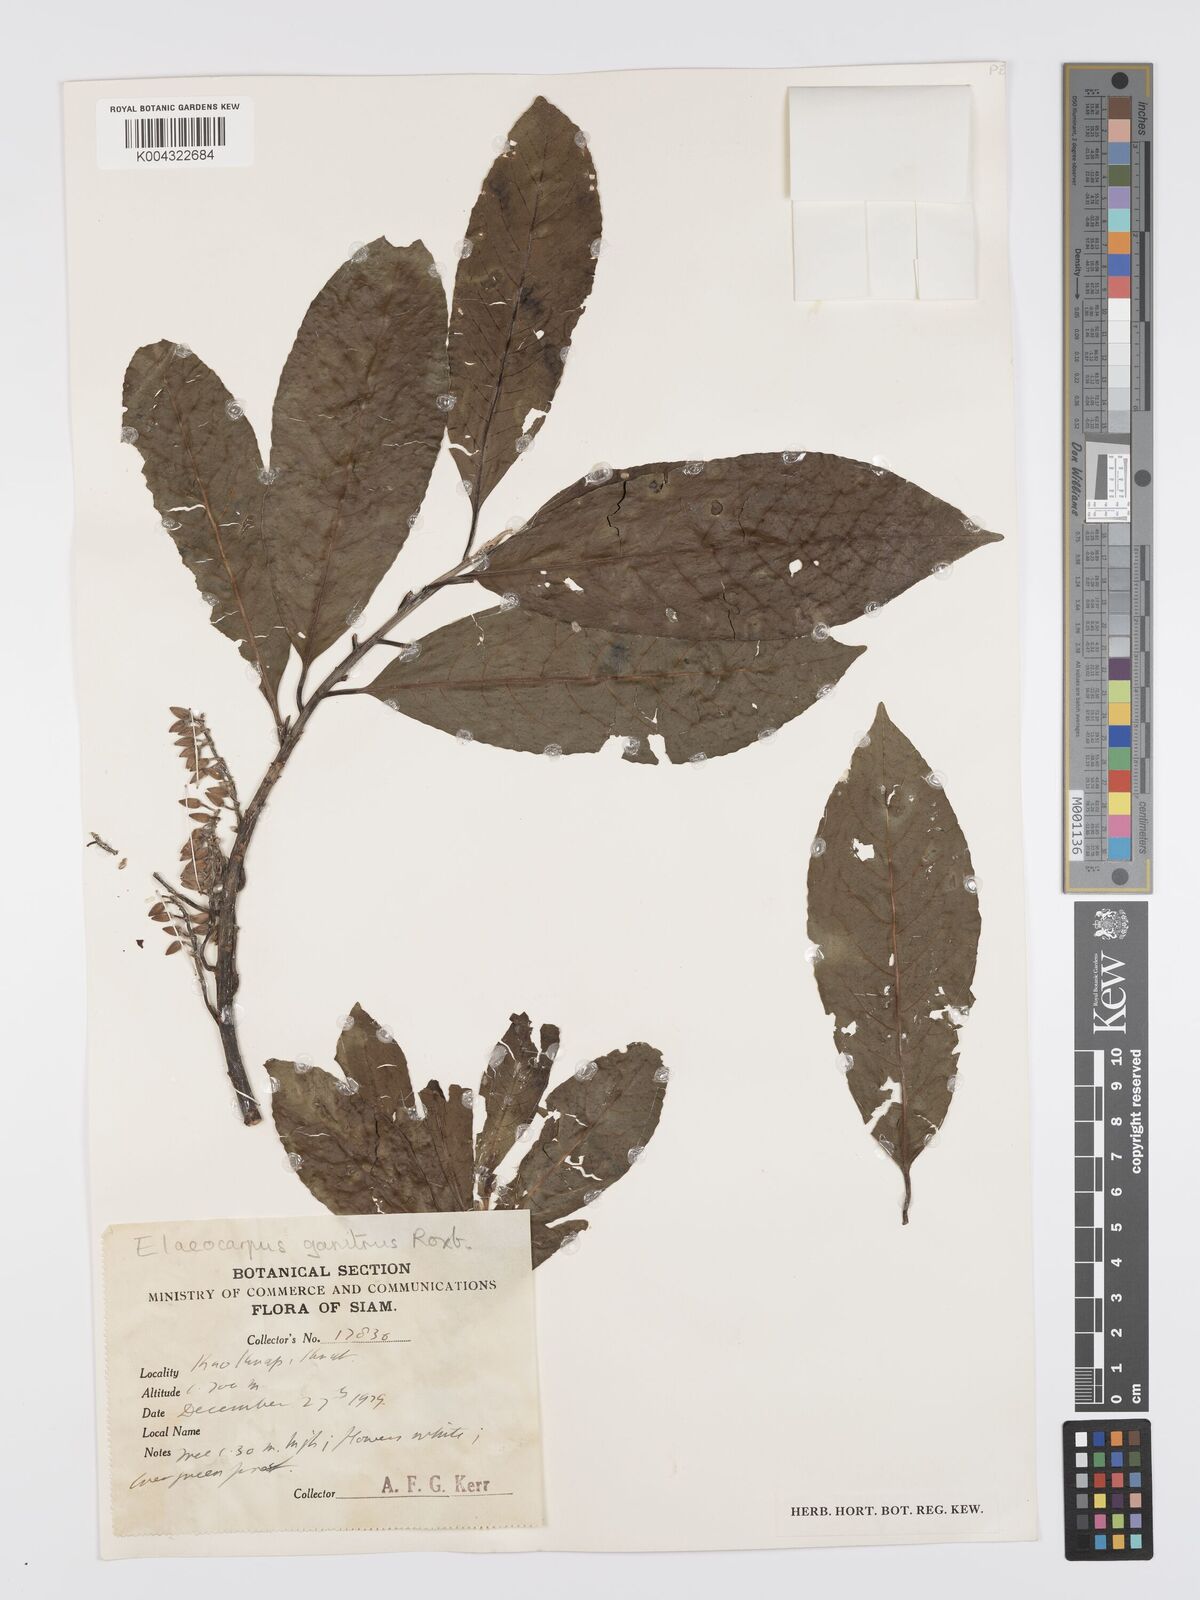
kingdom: Plantae
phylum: Tracheophyta
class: Magnoliopsida
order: Oxalidales
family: Elaeocarpaceae
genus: Elaeocarpus
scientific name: Elaeocarpus
